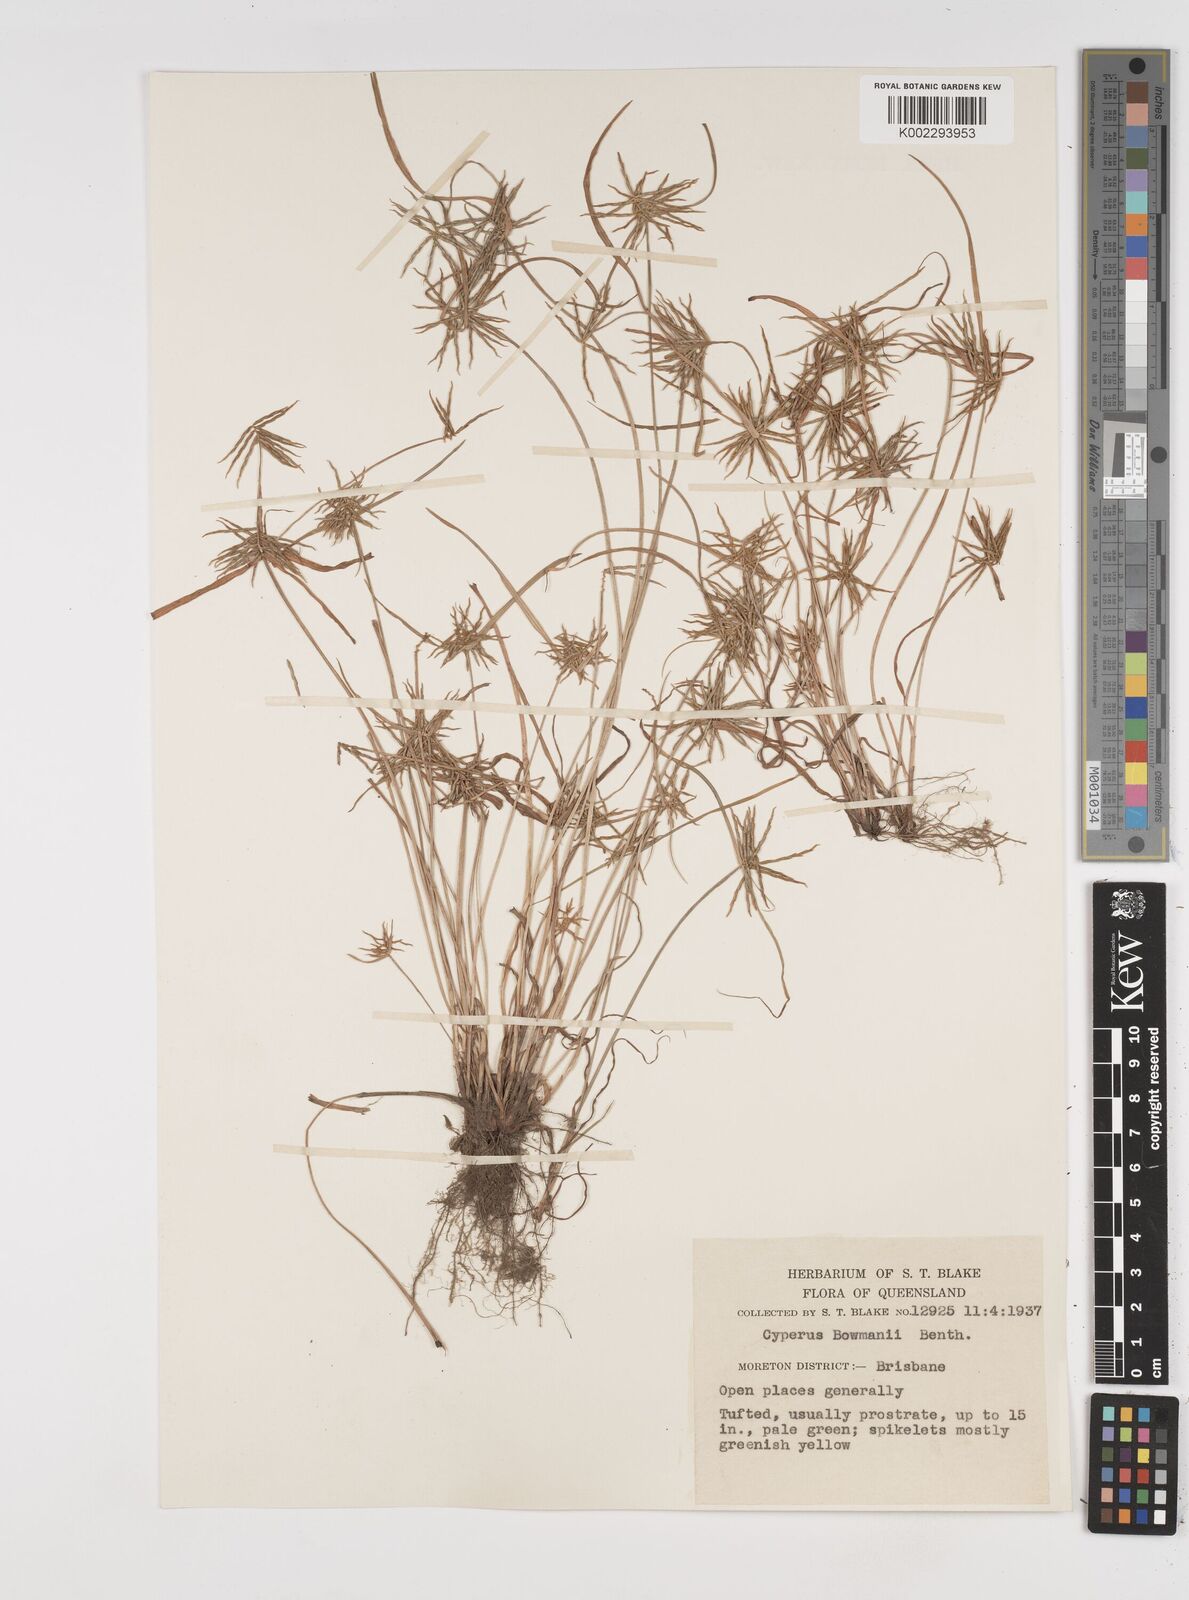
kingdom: Plantae
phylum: Tracheophyta
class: Liliopsida
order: Poales
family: Cyperaceae
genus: Cyperus
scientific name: Cyperus bowmanni
